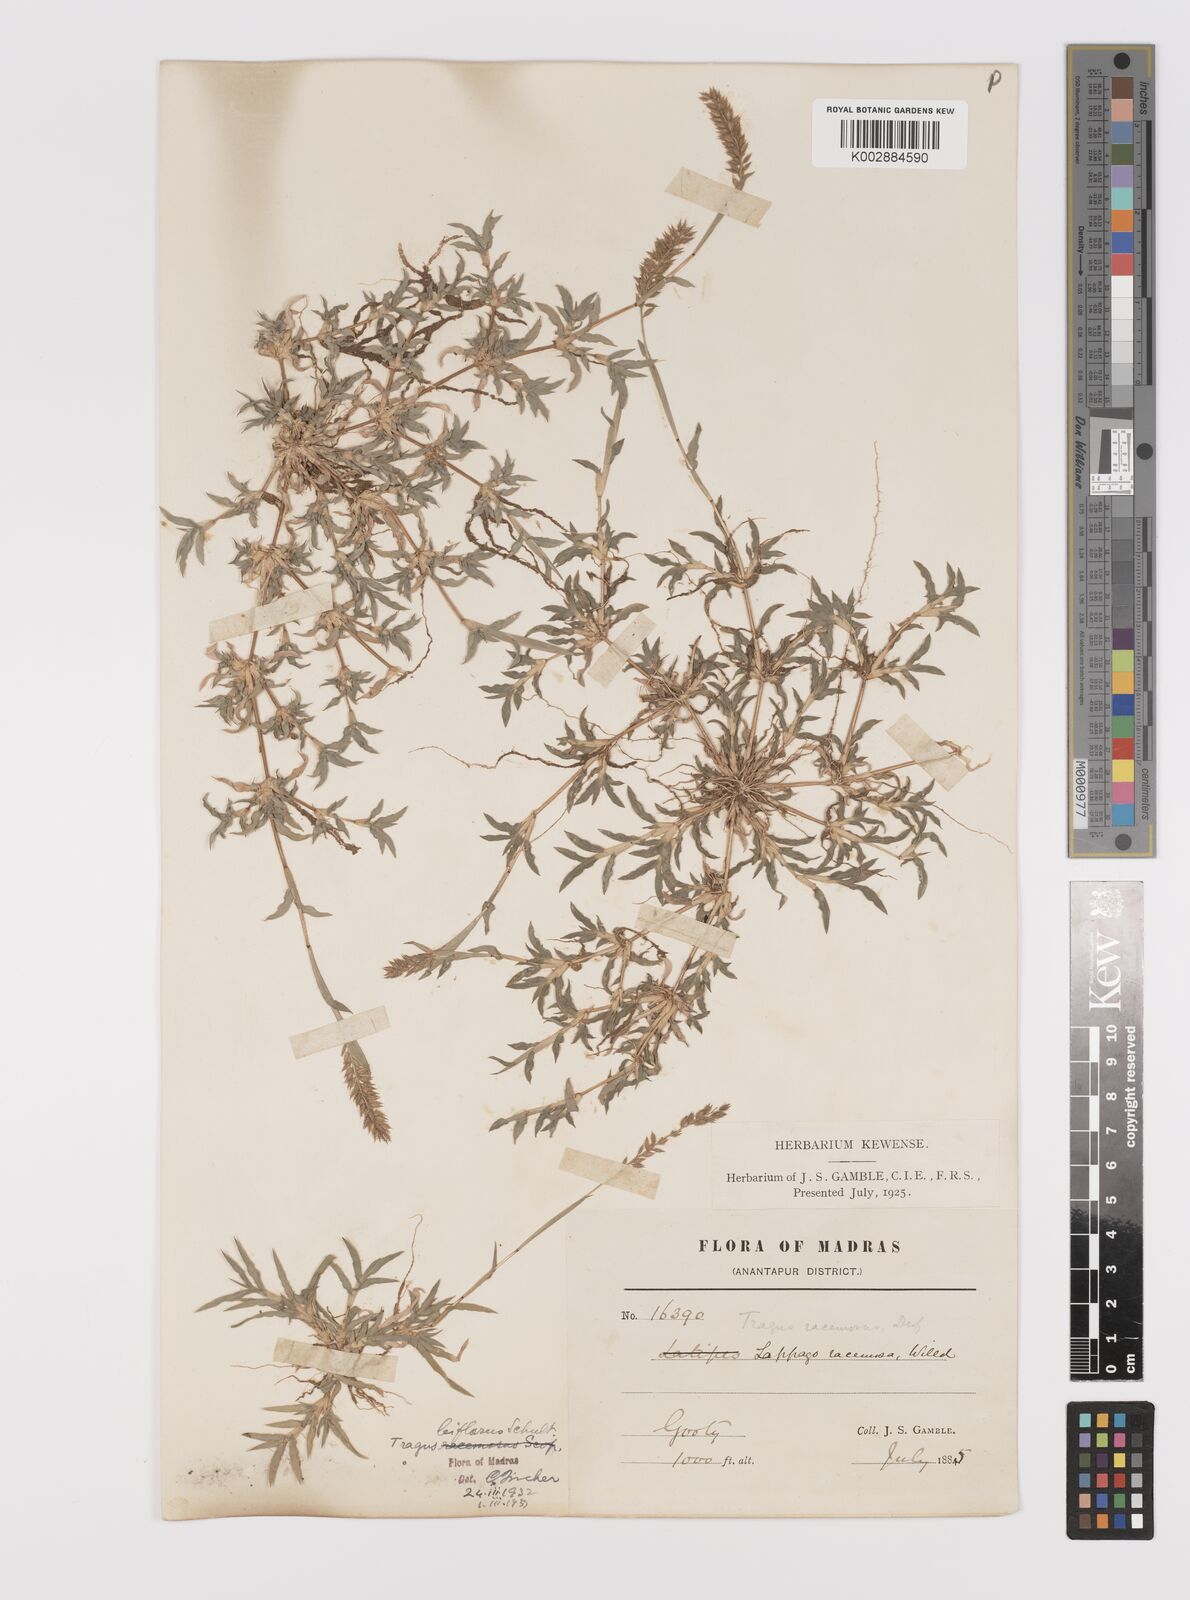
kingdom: Plantae
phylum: Tracheophyta
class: Liliopsida
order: Poales
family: Poaceae
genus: Tragus
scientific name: Tragus mongolorum
